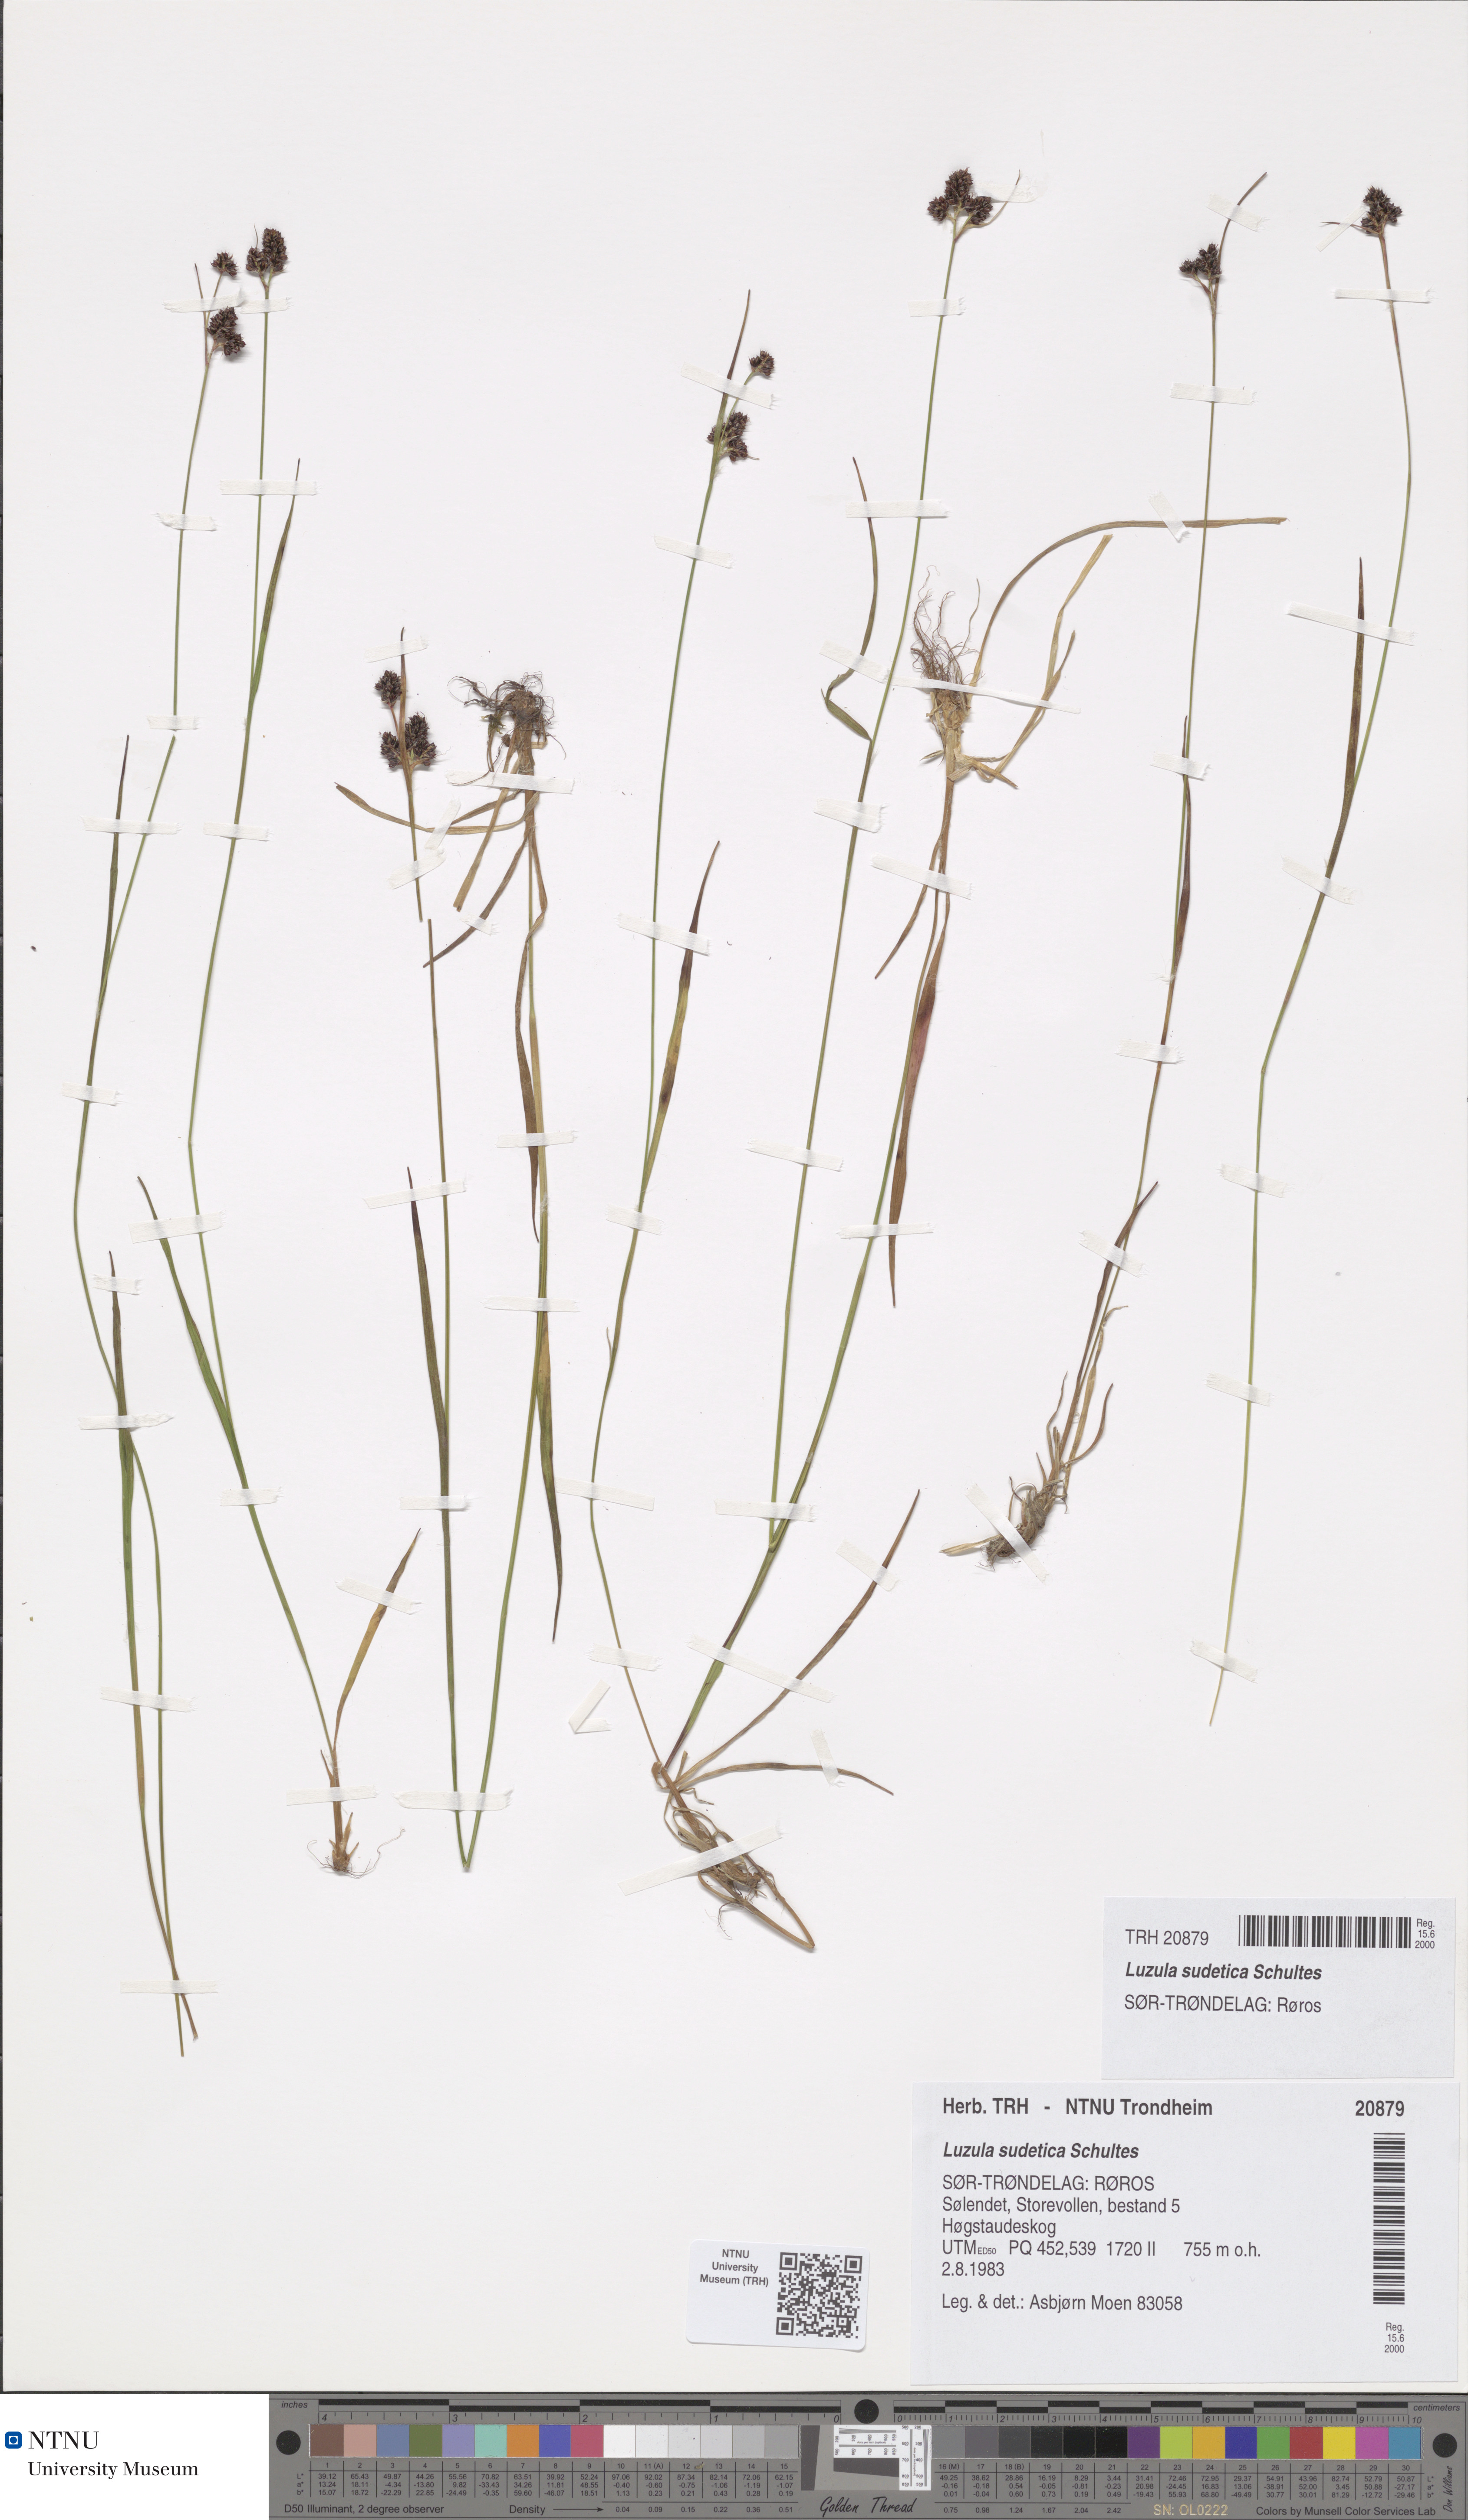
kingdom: Plantae
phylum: Tracheophyta
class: Liliopsida
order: Poales
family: Juncaceae
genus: Luzula
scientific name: Luzula sudetica
